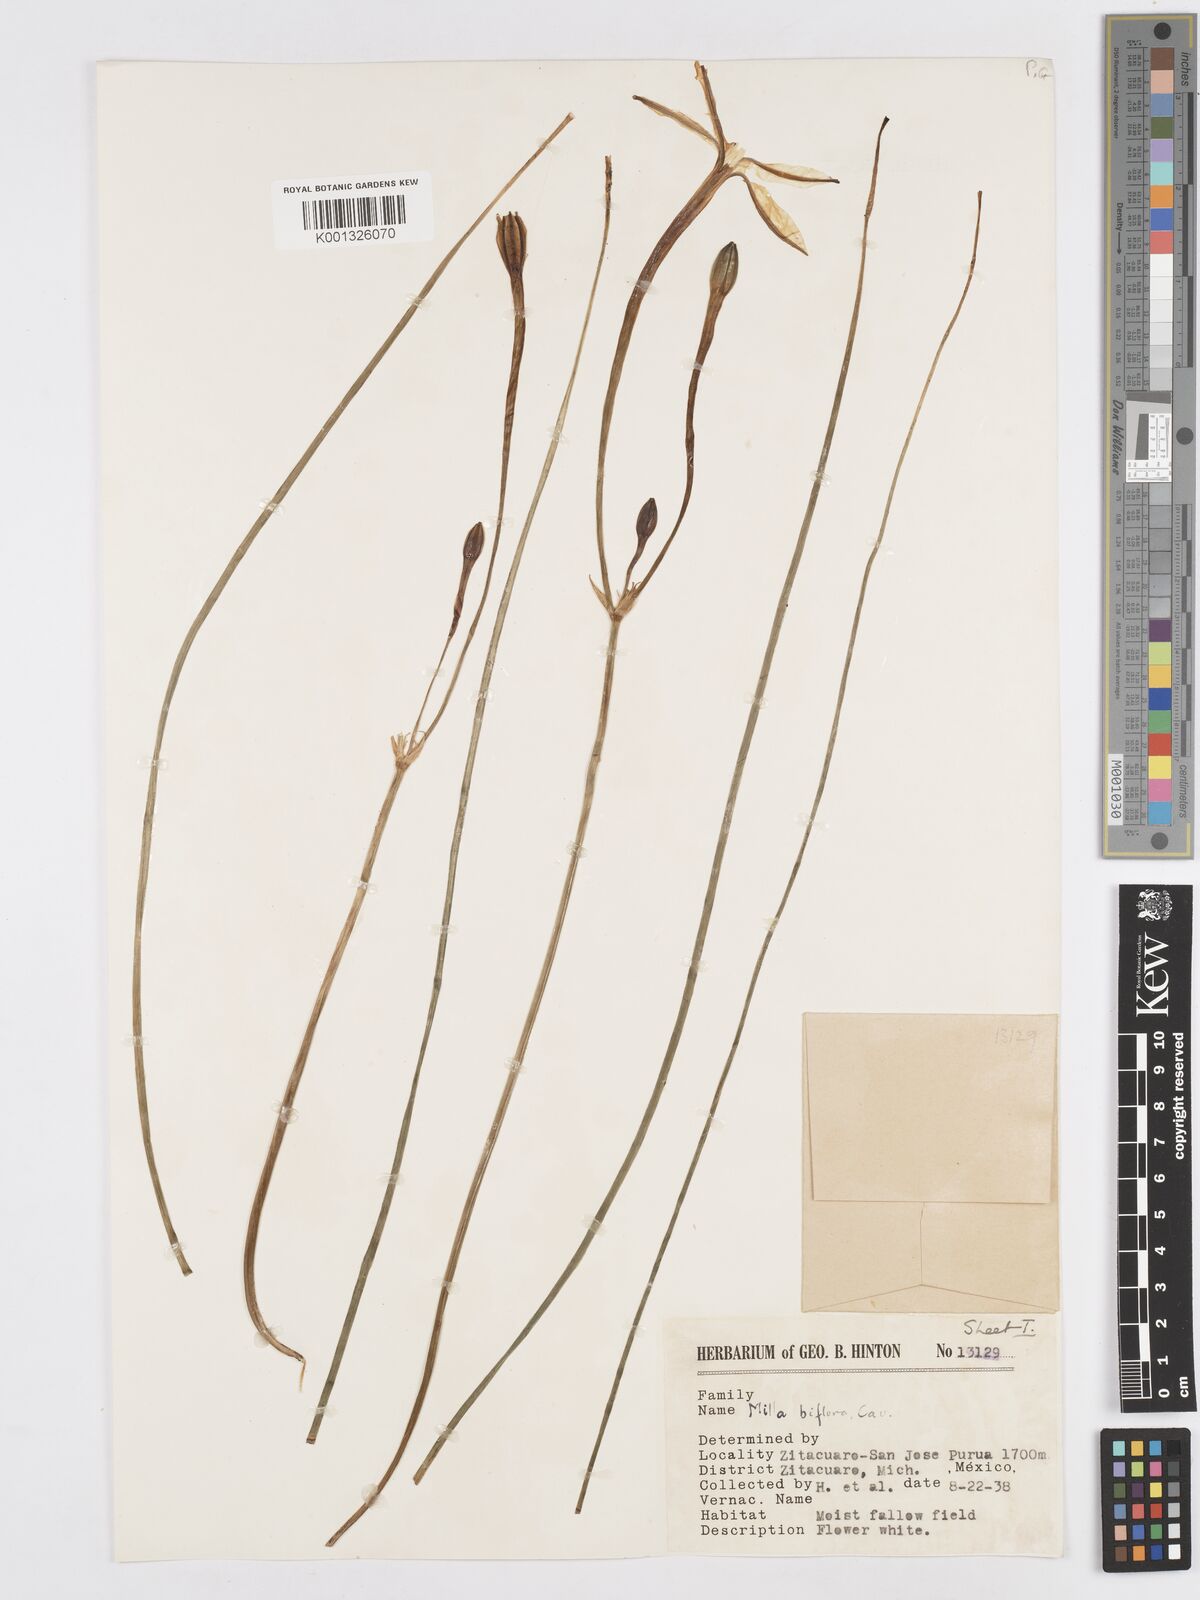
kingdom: Plantae
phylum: Tracheophyta
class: Liliopsida
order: Asparagales
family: Asparagaceae
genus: Milla
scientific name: Milla biflora
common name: Mexican-star
